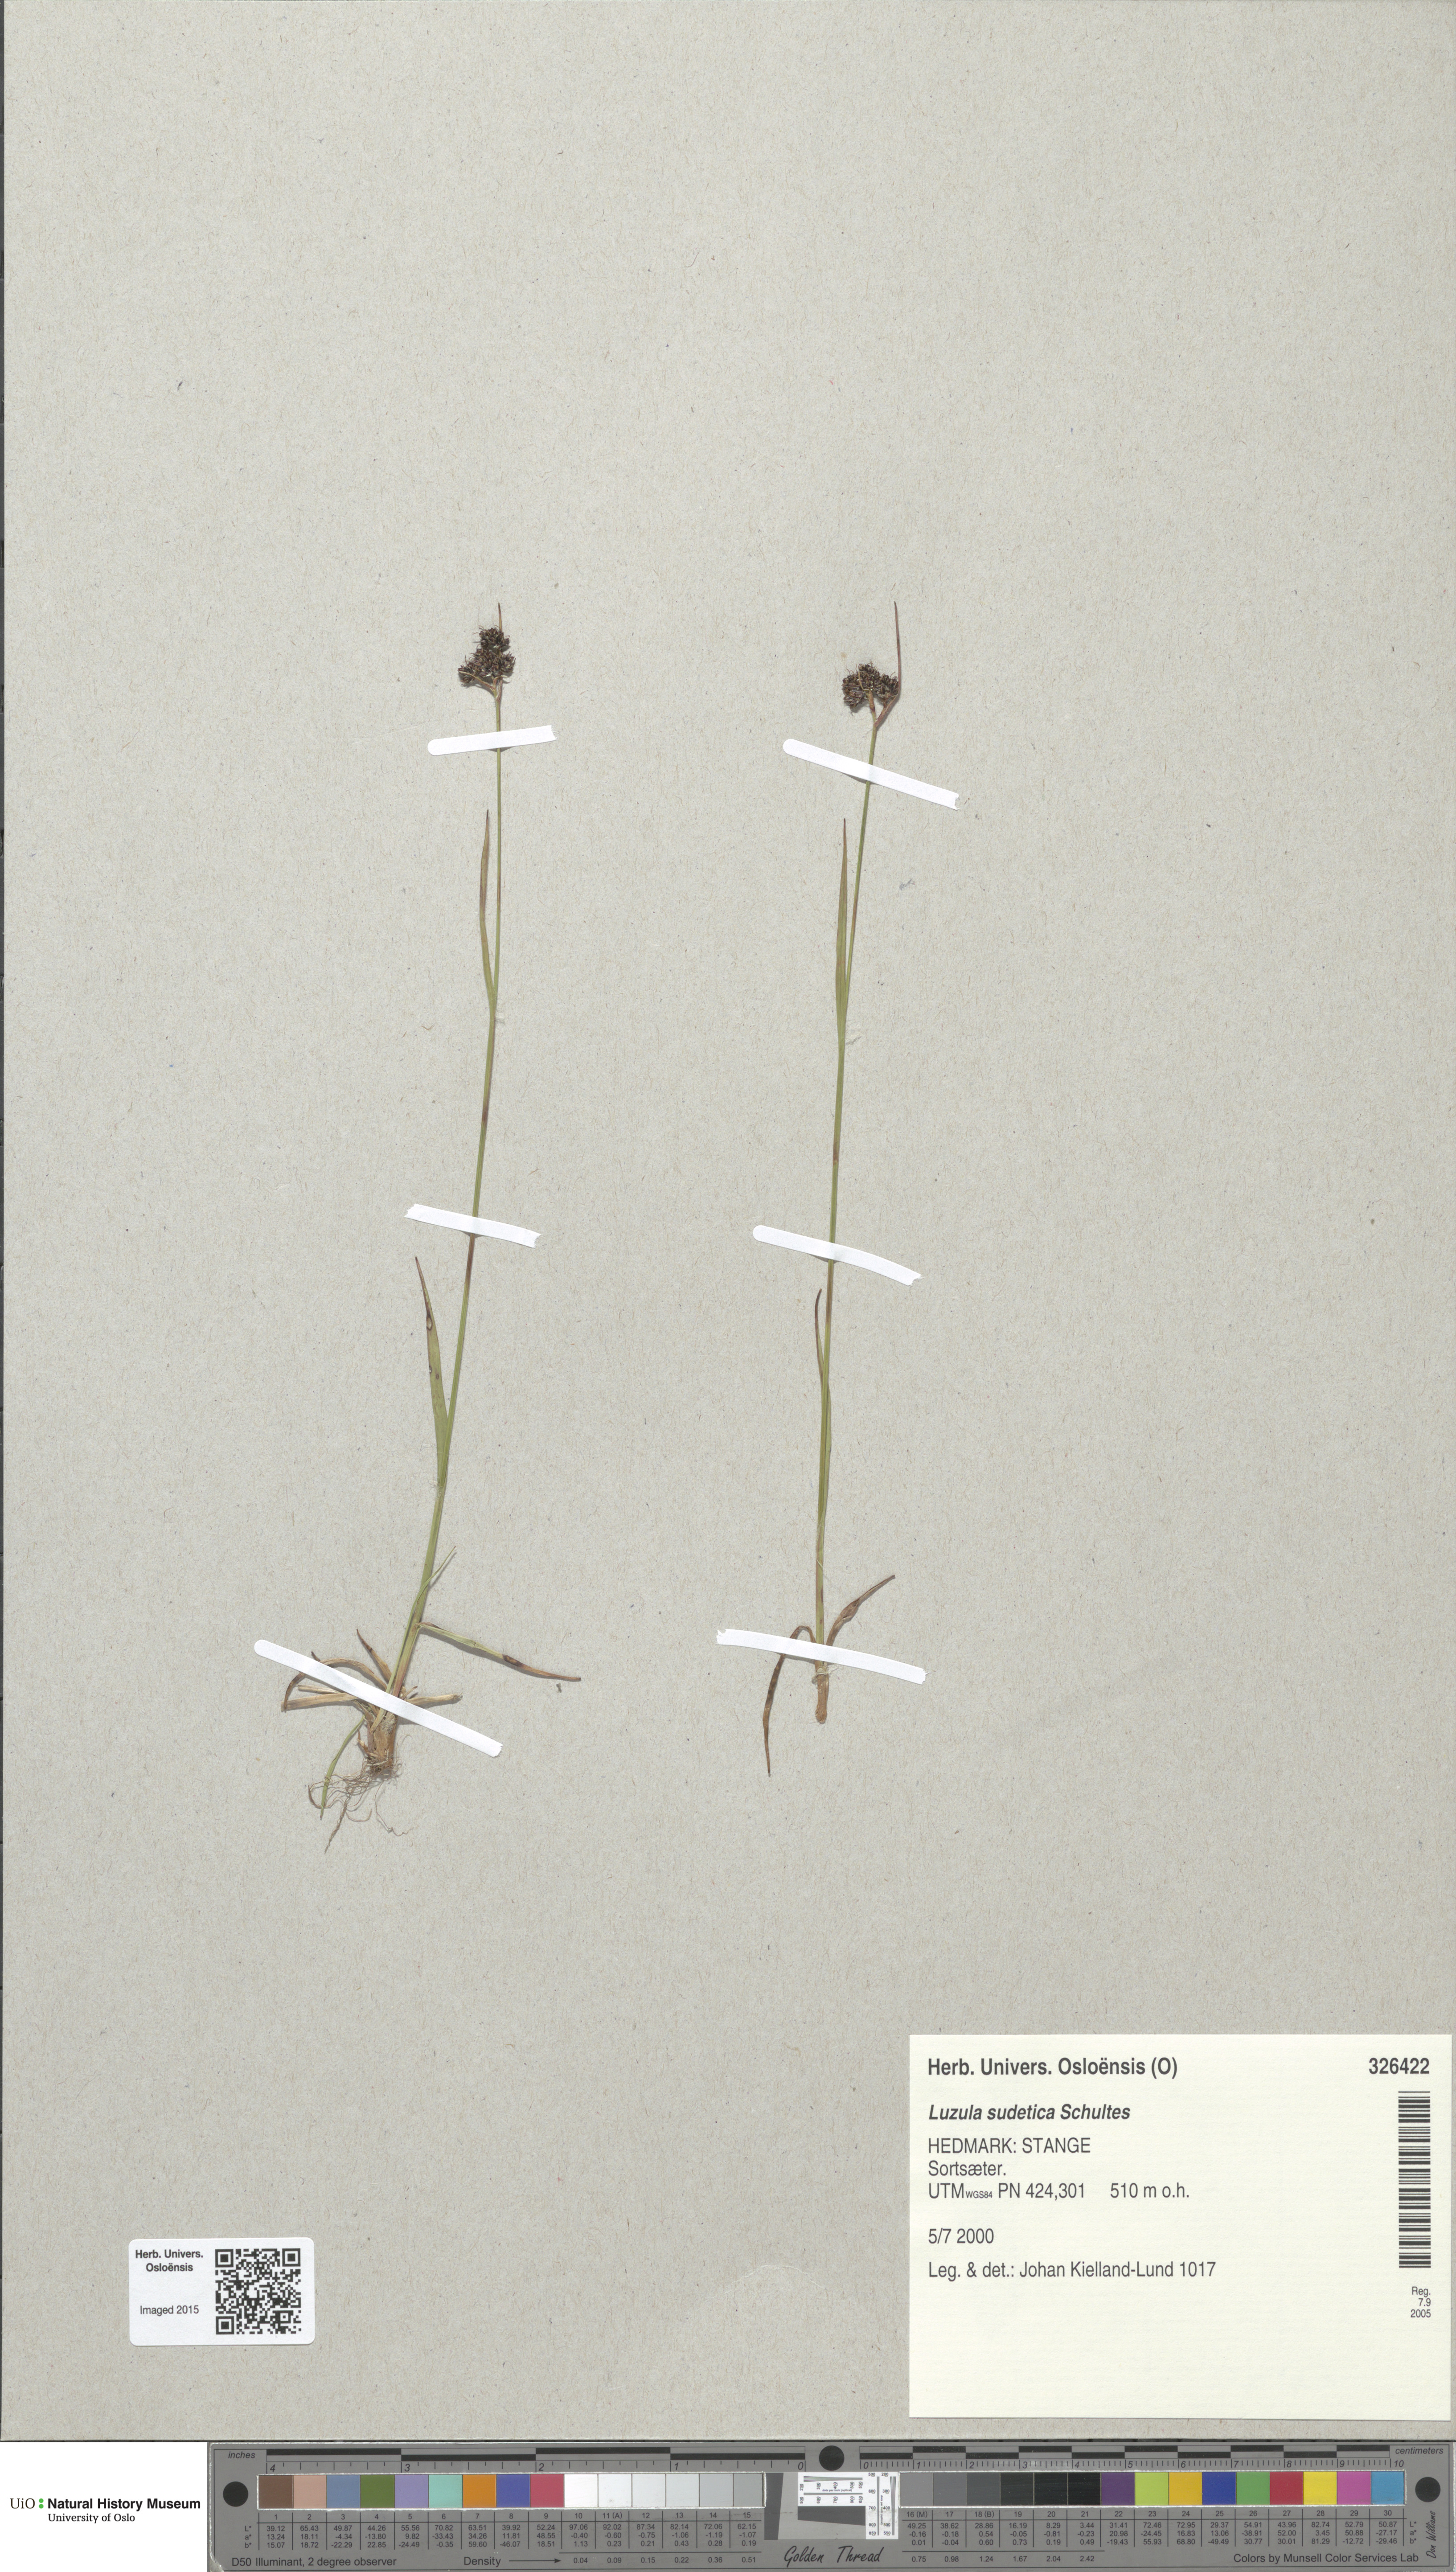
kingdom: Plantae
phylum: Tracheophyta
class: Liliopsida
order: Poales
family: Juncaceae
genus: Luzula
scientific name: Luzula sudetica
